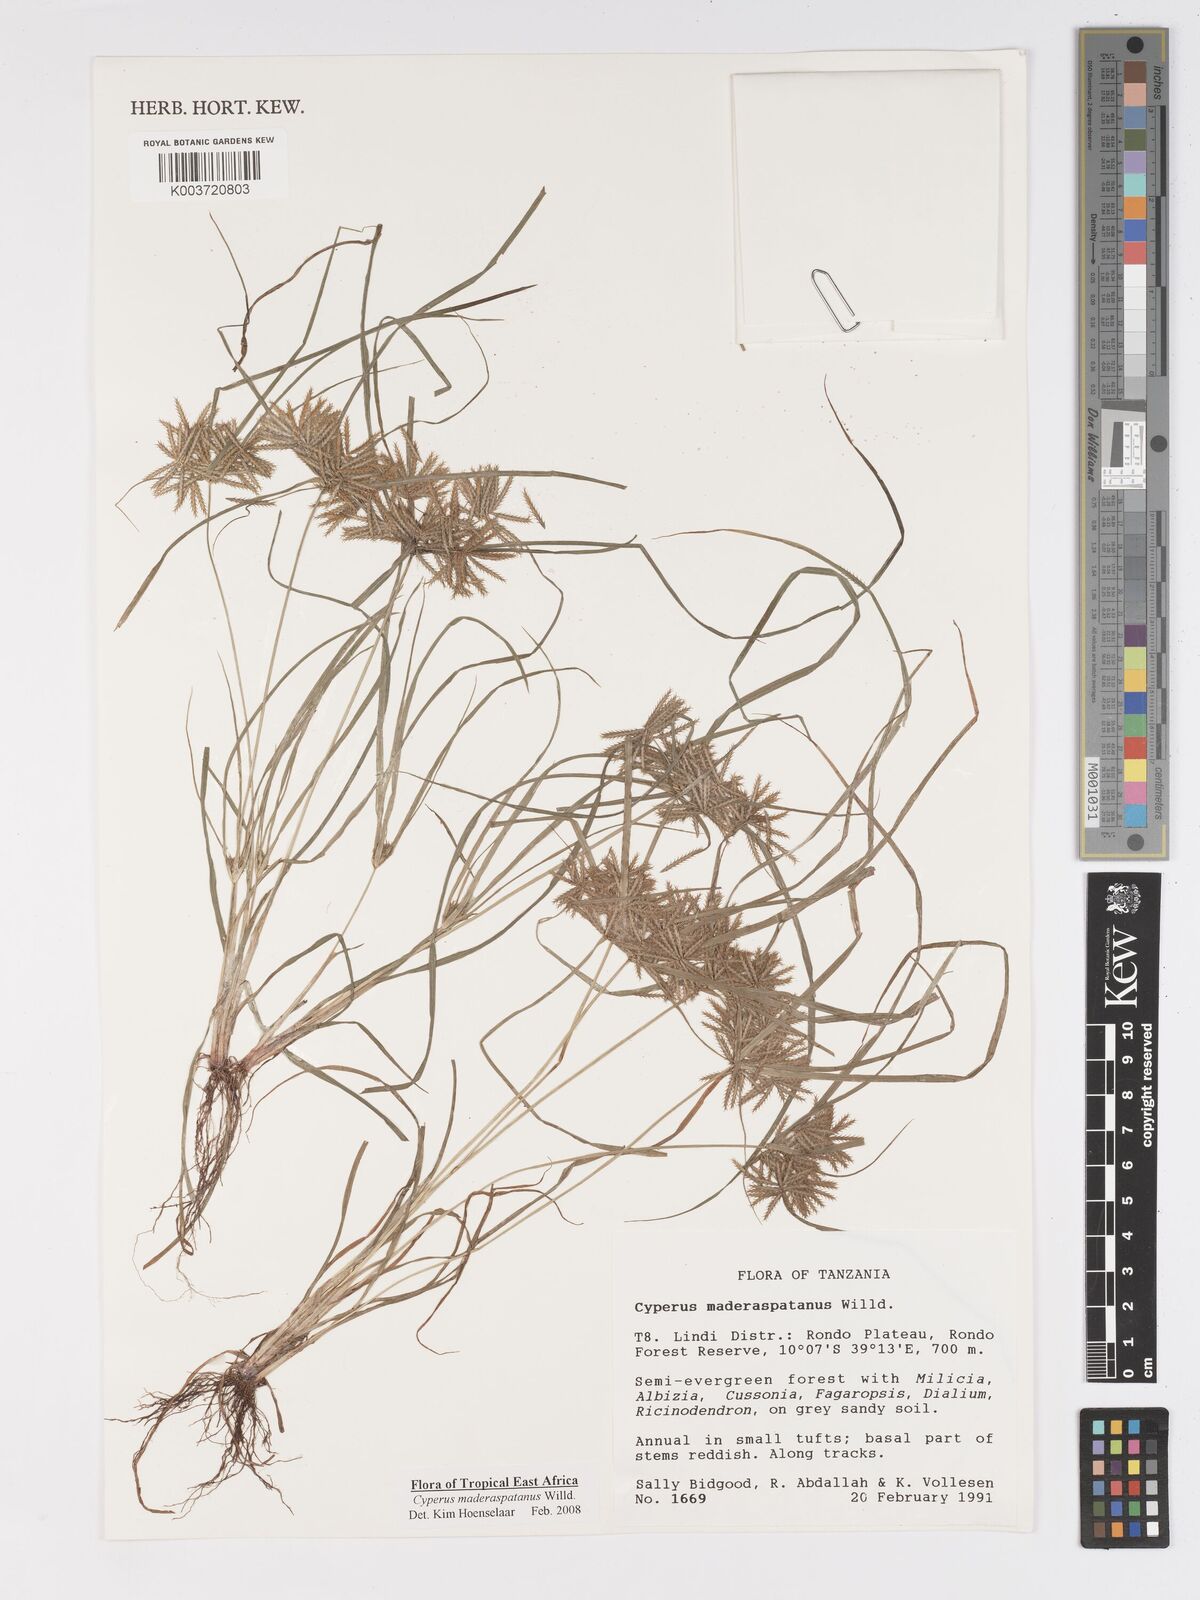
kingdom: Plantae
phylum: Tracheophyta
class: Liliopsida
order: Poales
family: Cyperaceae
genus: Cyperus
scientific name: Cyperus maderaspatanus
